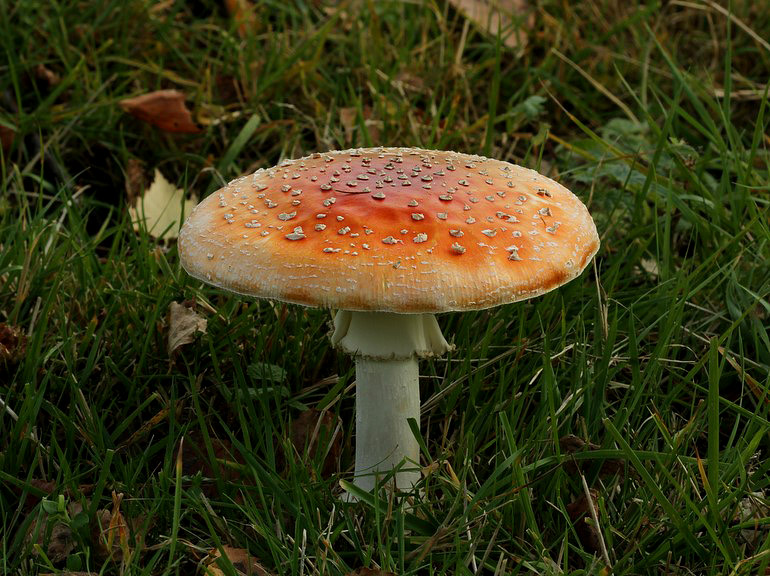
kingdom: Fungi
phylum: Basidiomycota
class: Agaricomycetes
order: Agaricales
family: Amanitaceae
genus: Amanita
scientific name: Amanita muscaria
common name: rød fluesvamp
